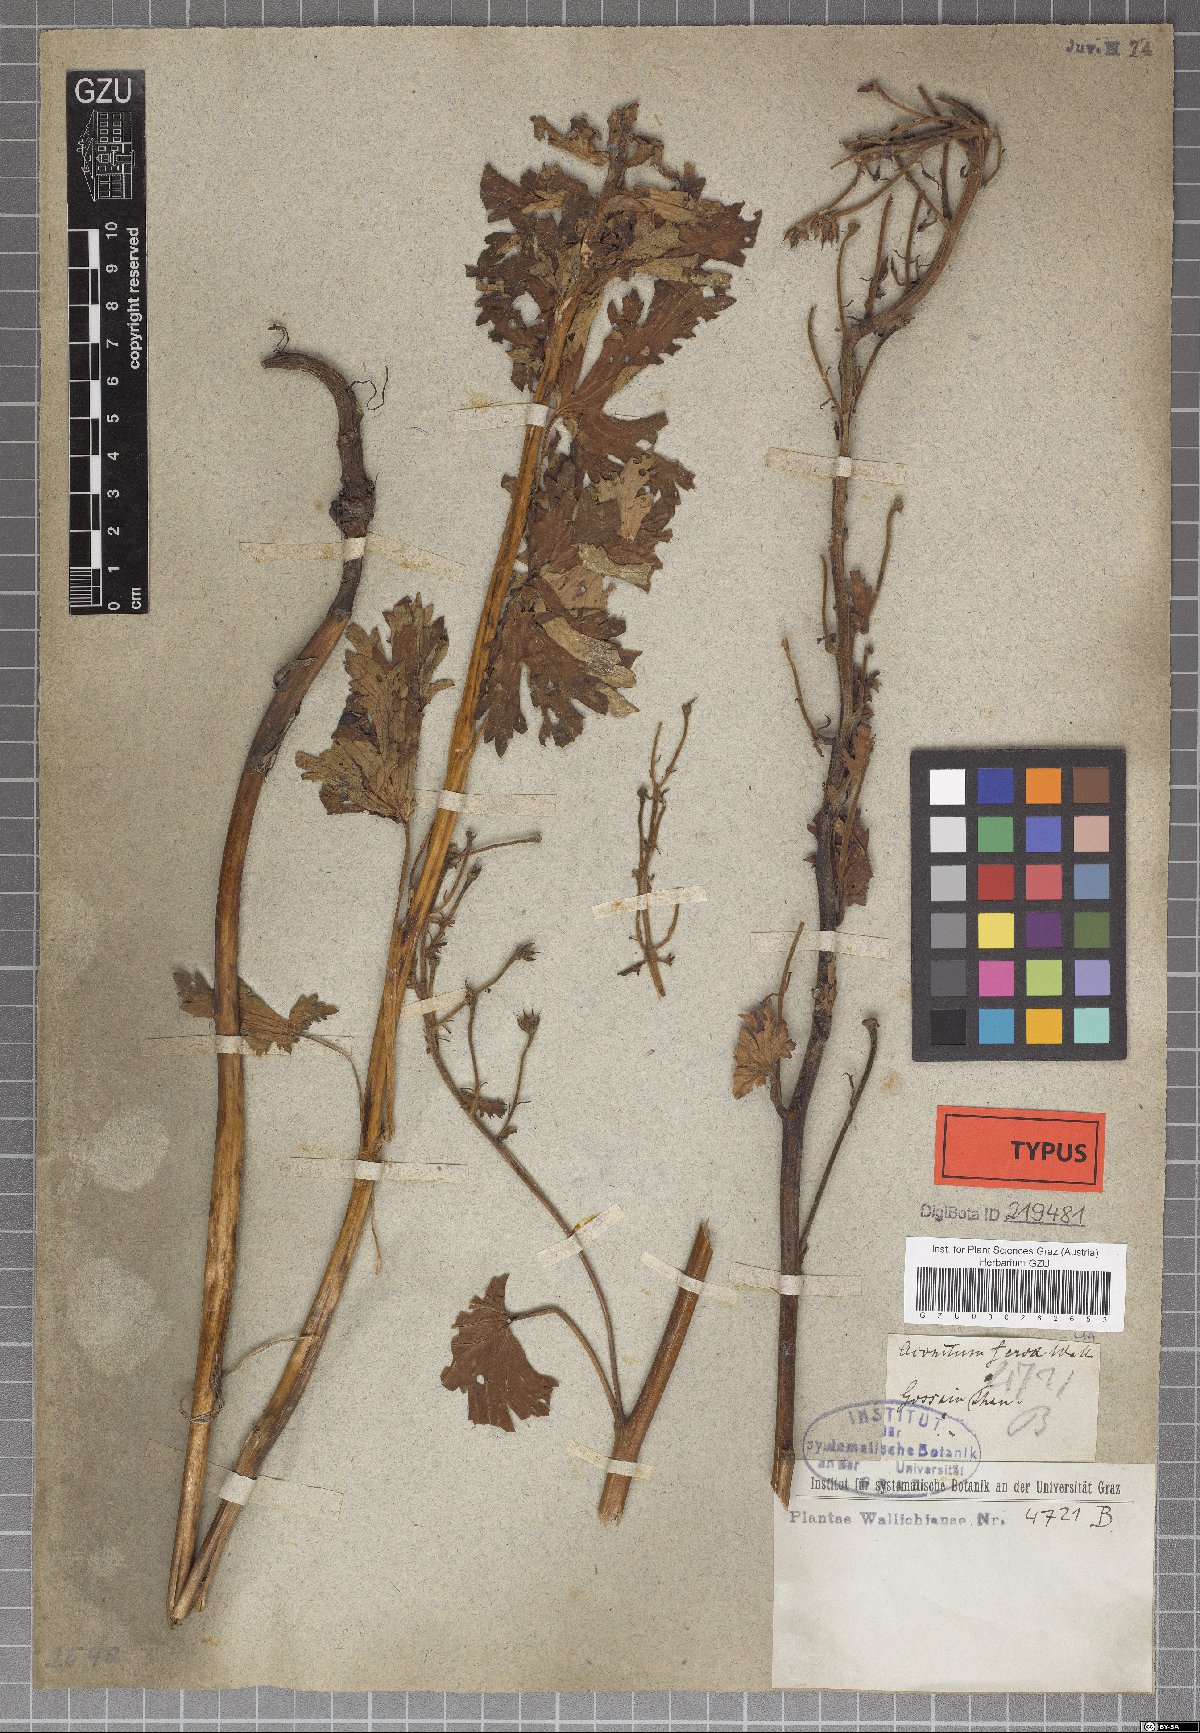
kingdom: Plantae
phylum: Tracheophyta
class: Magnoliopsida
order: Ranunculales
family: Ranunculaceae
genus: Aconitum
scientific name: Aconitum ferox
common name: Indian aconite
